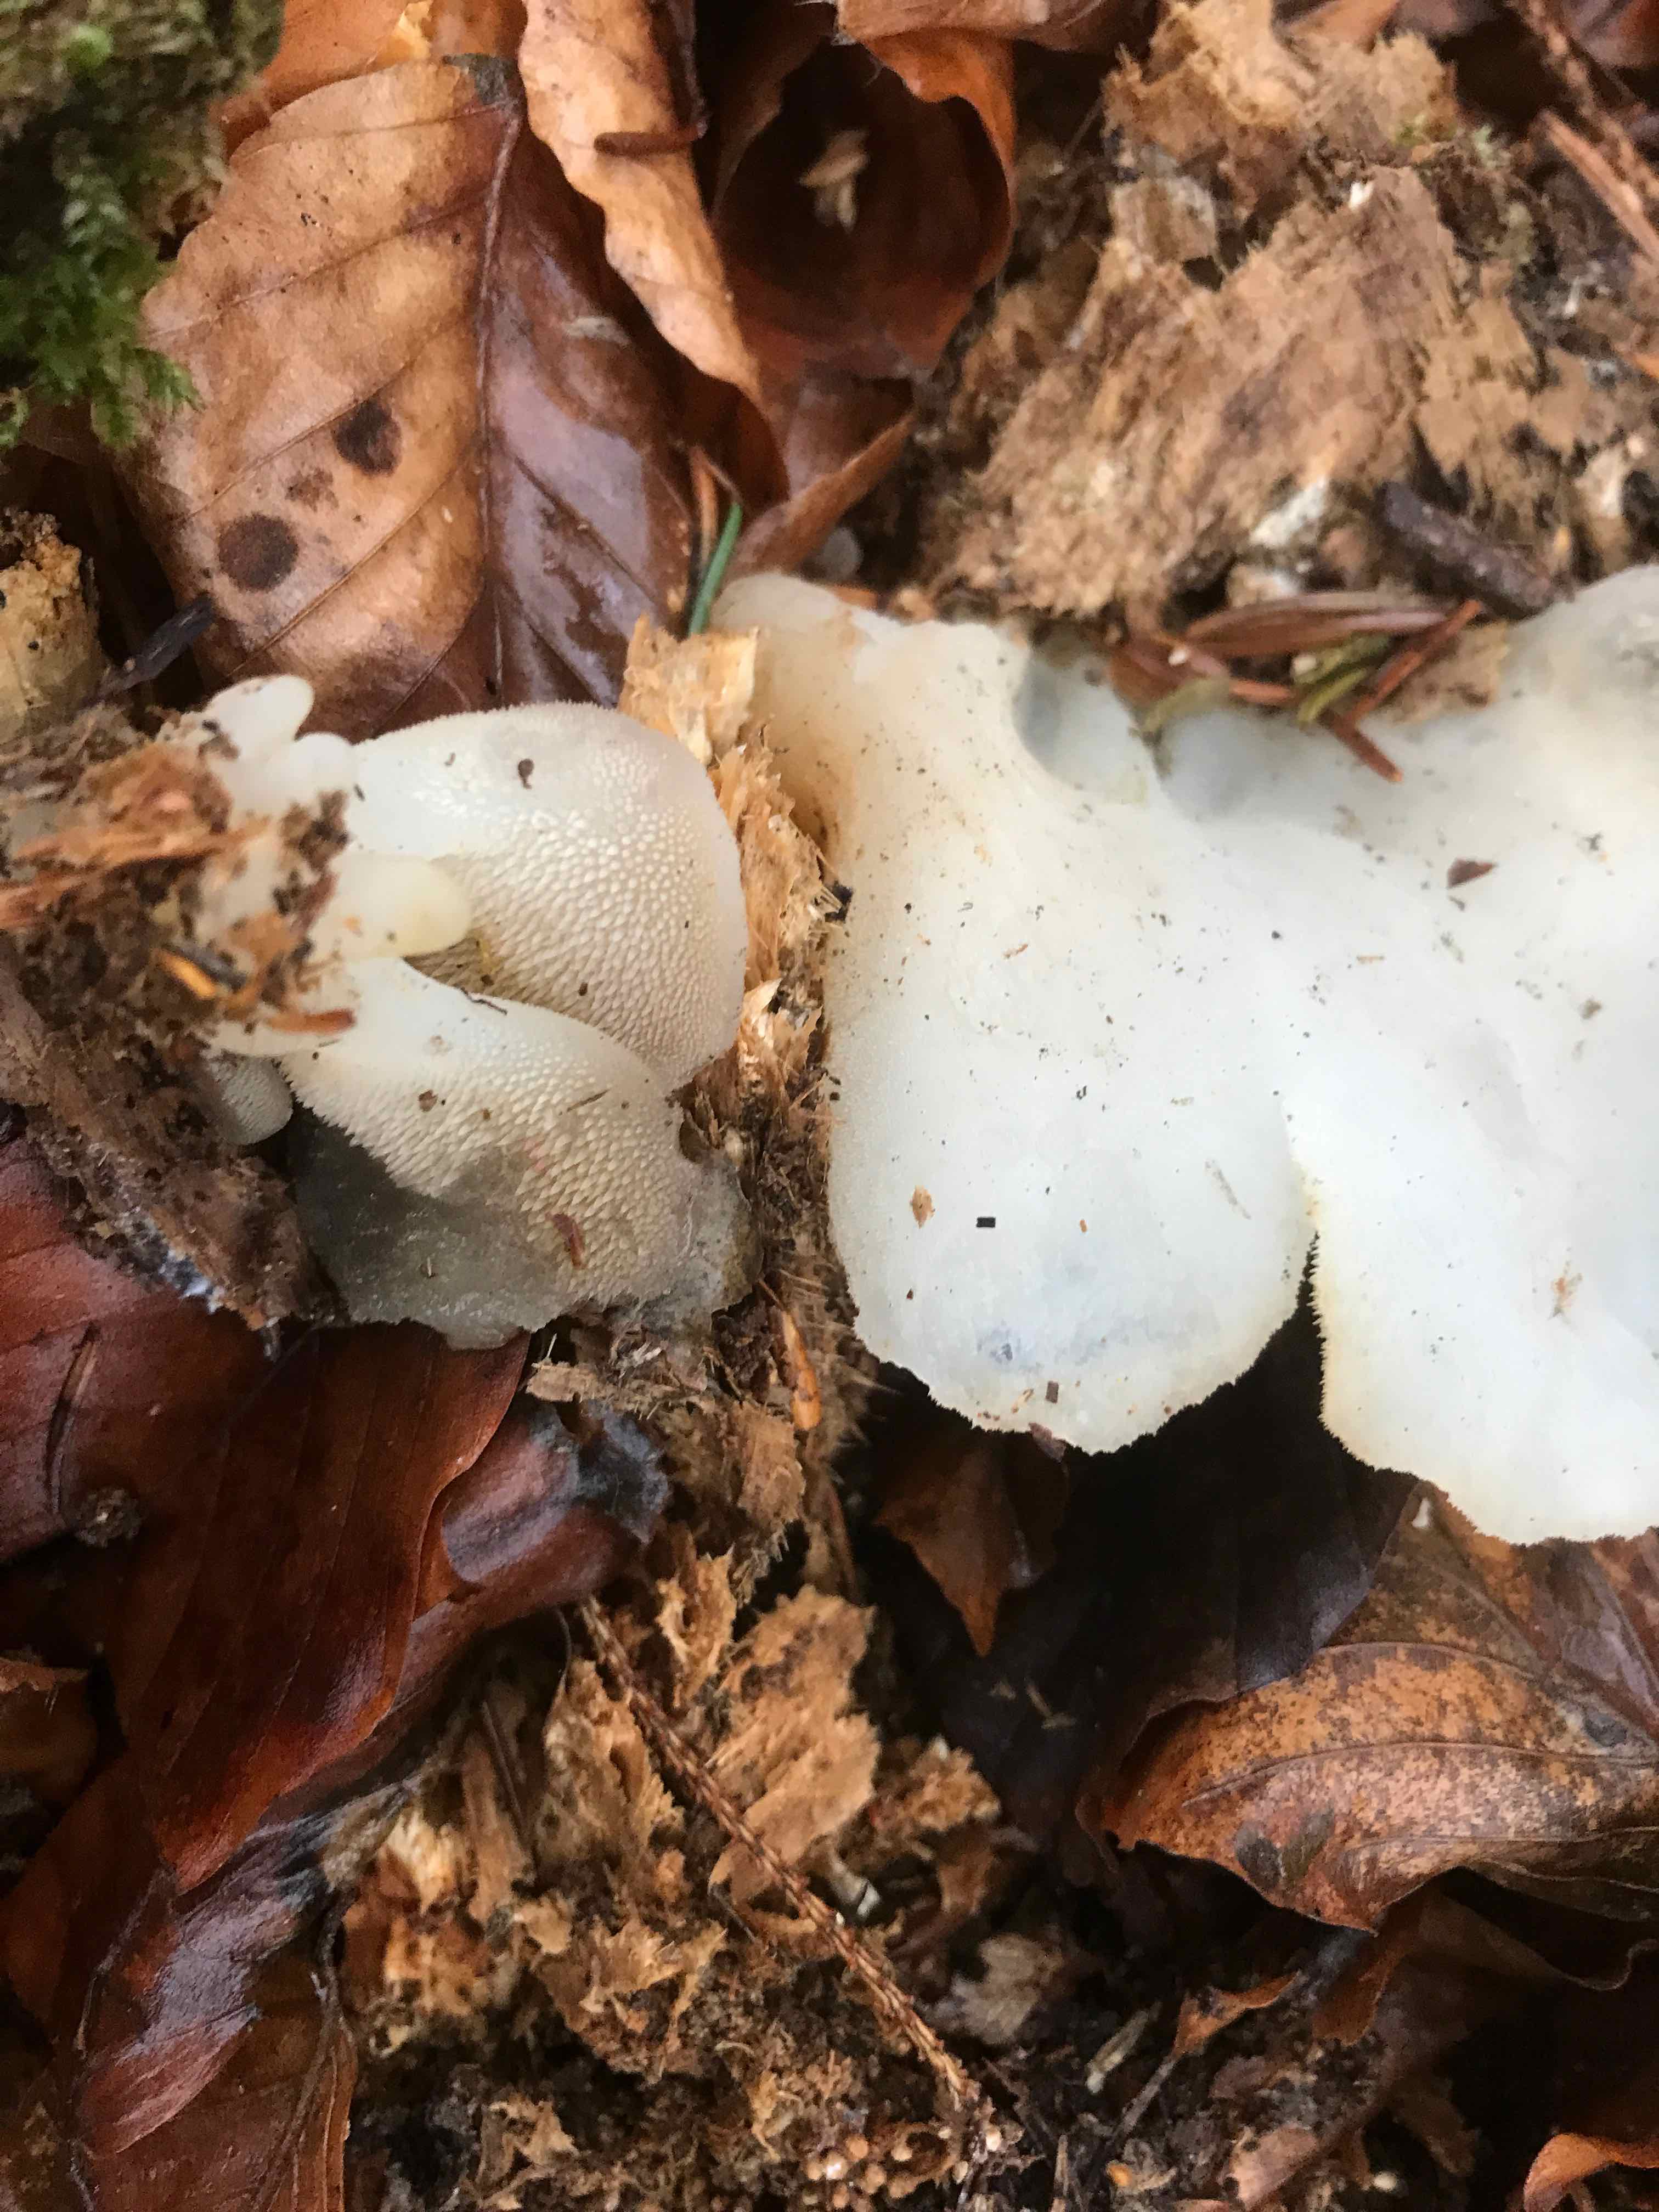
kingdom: Fungi
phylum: Basidiomycota
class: Agaricomycetes
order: Auriculariales
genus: Pseudohydnum
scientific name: Pseudohydnum gelatinosum
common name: bævretand
